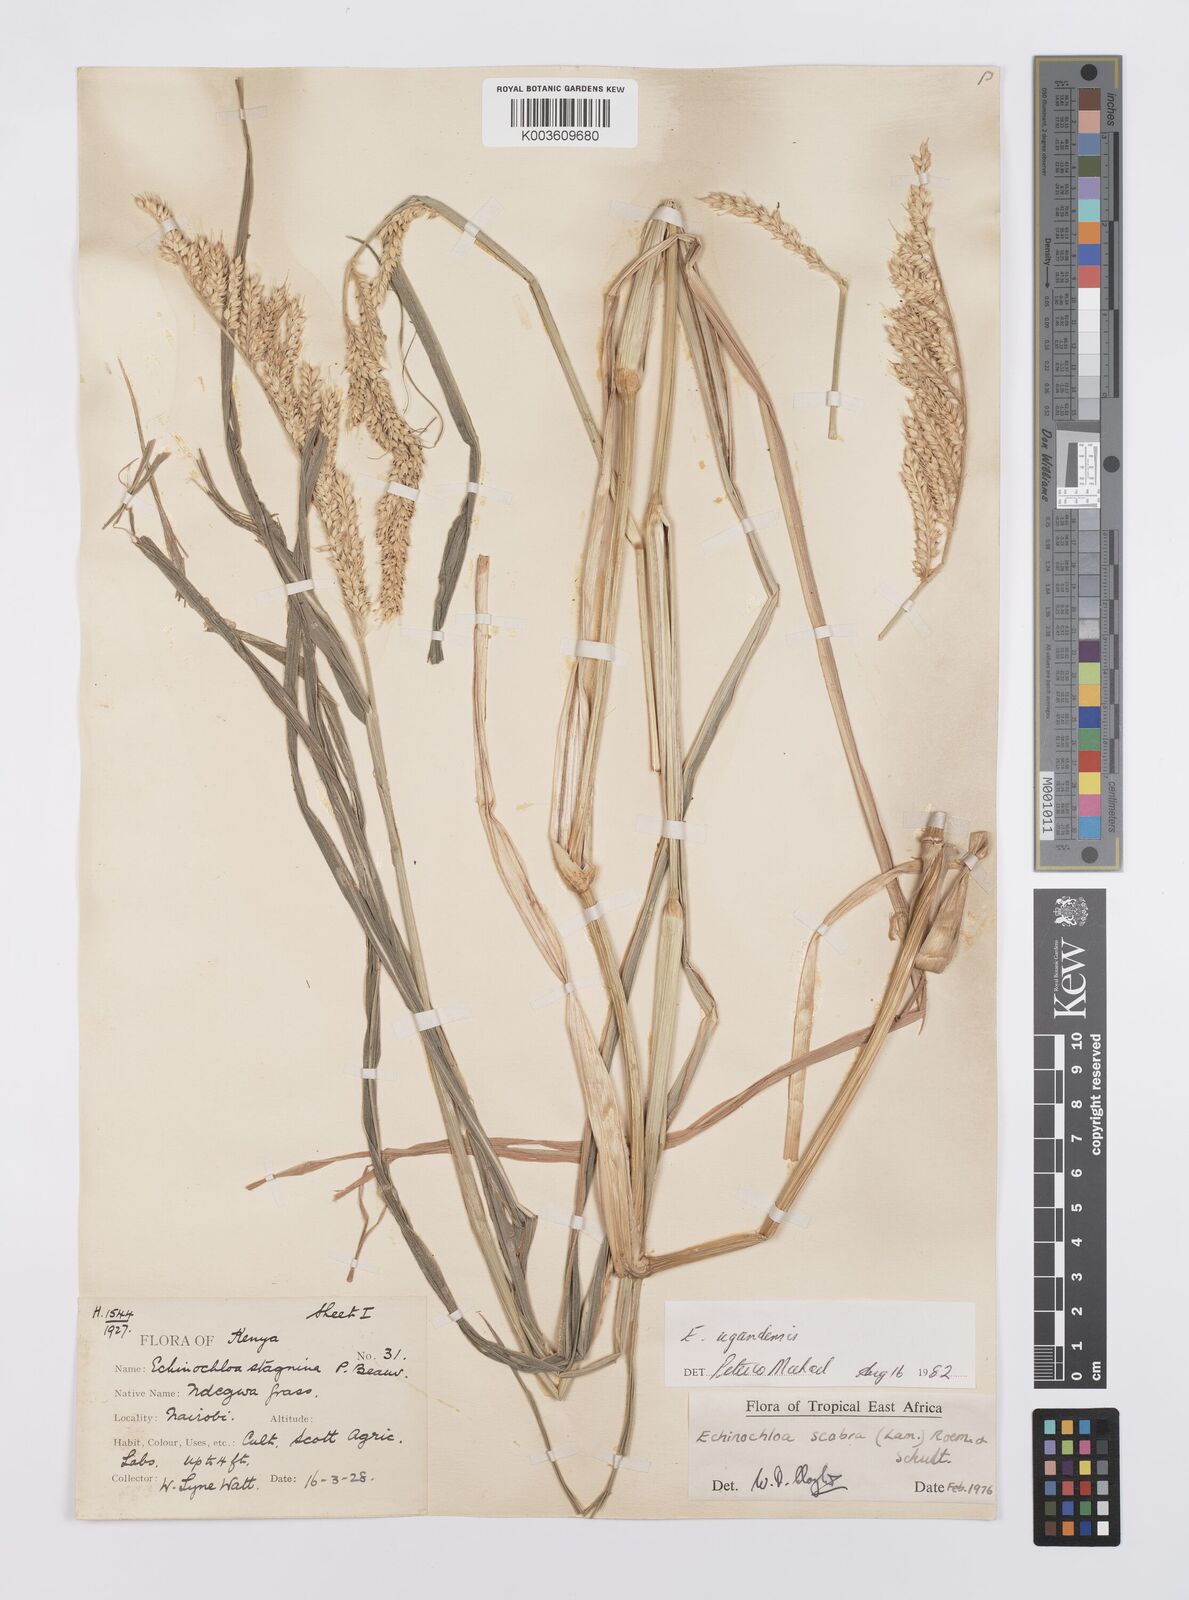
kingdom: Plantae
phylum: Tracheophyta
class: Liliopsida
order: Poales
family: Poaceae
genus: Echinochloa
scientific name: Echinochloa stagnina
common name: Burgu grass
